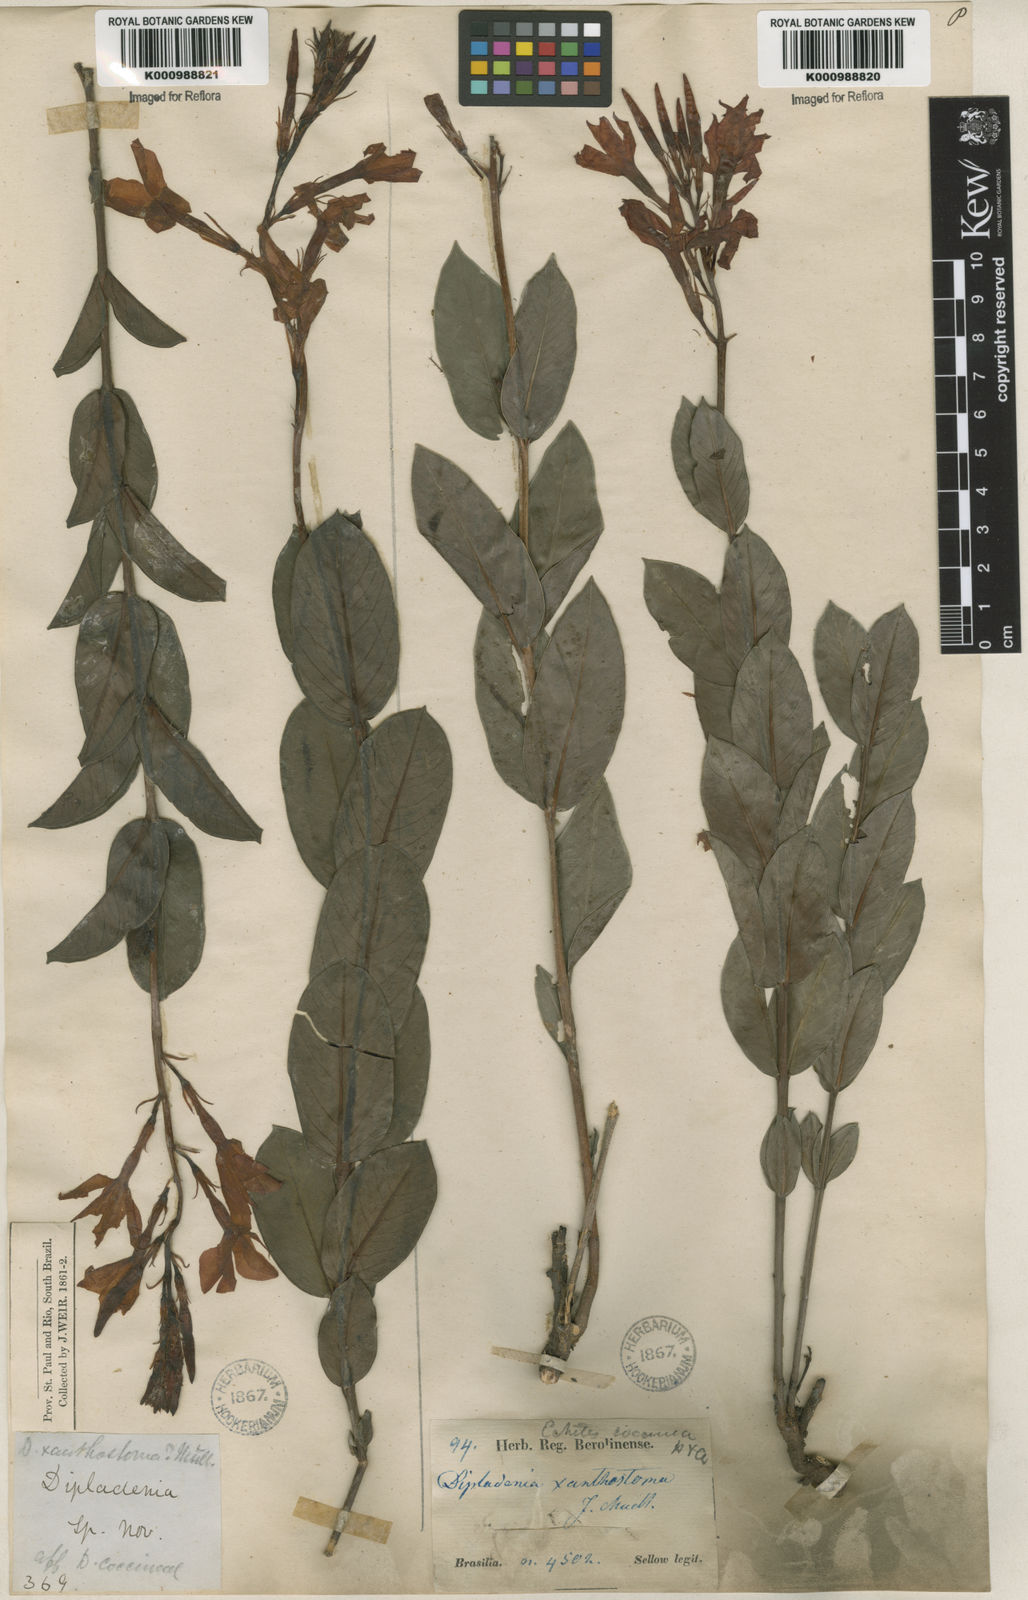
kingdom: Plantae
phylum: Tracheophyta
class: Magnoliopsida
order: Gentianales
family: Apocynaceae
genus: Mandevilla
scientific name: Mandevilla
